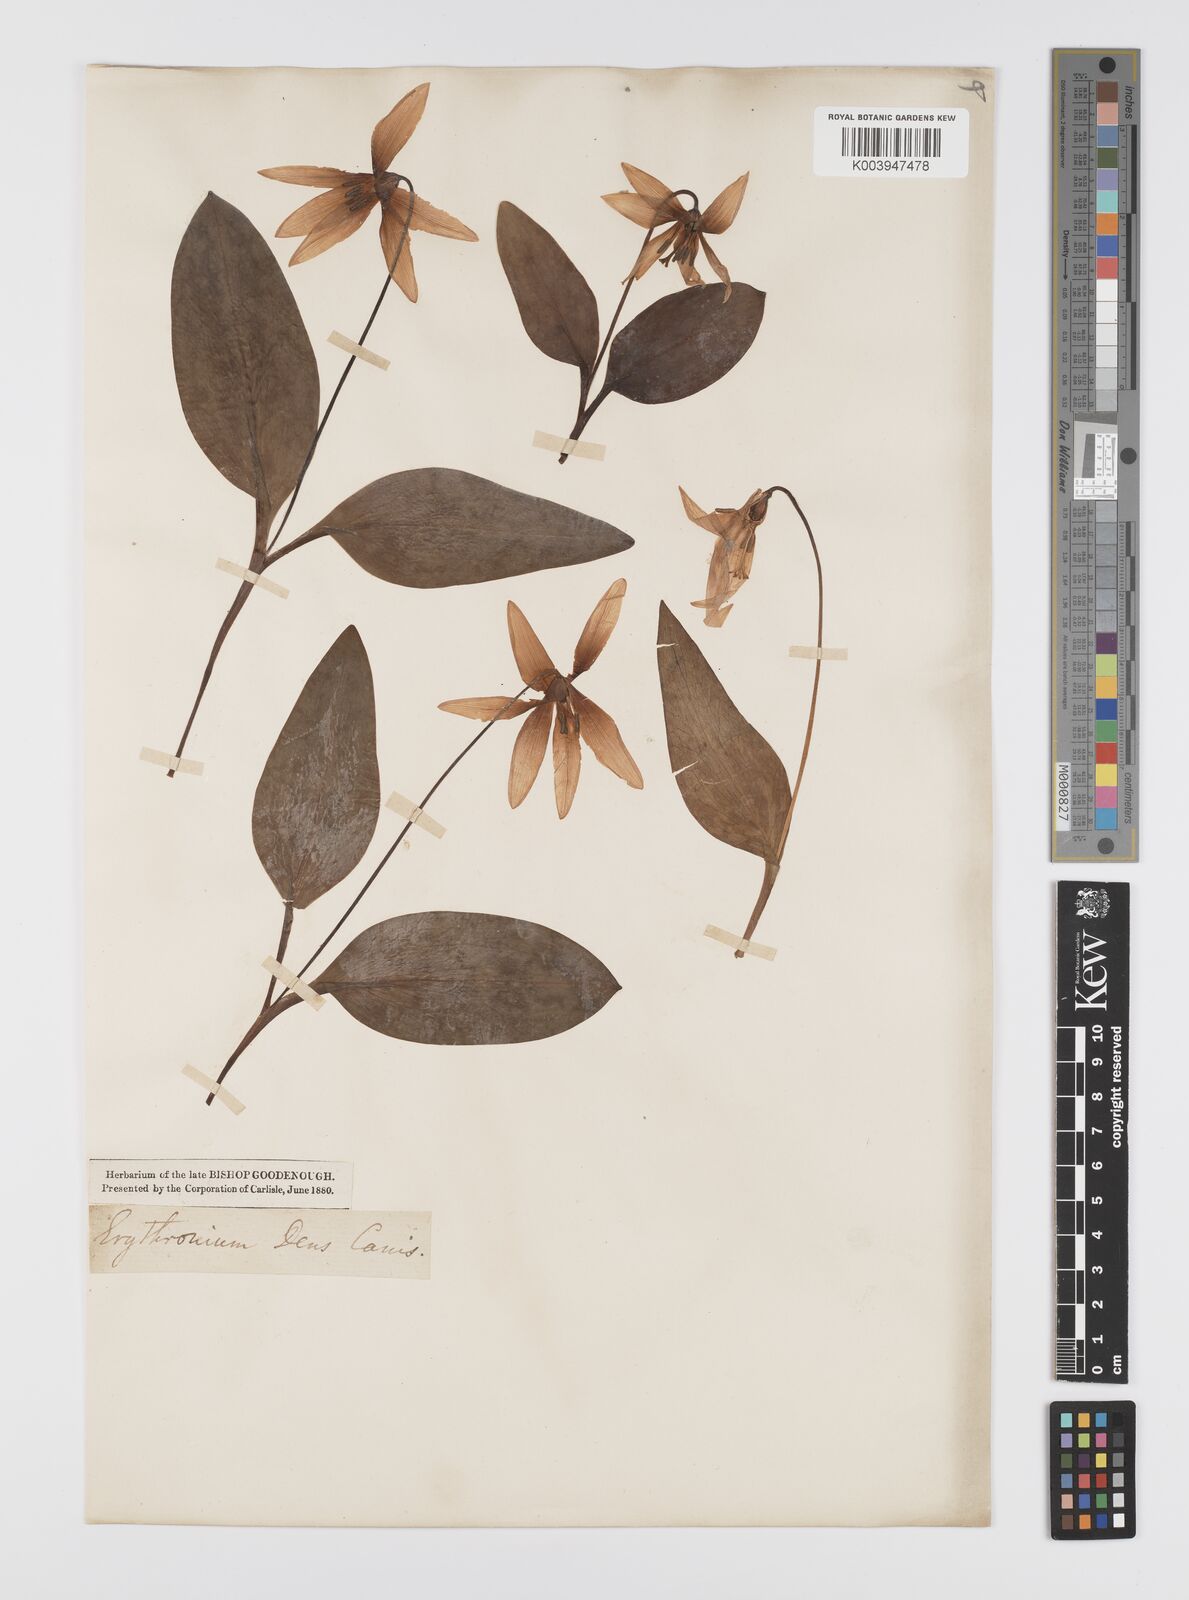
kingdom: Plantae
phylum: Tracheophyta
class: Liliopsida
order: Liliales
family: Liliaceae
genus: Erythronium
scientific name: Erythronium dens-canis
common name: Dog's-tooth-violet
